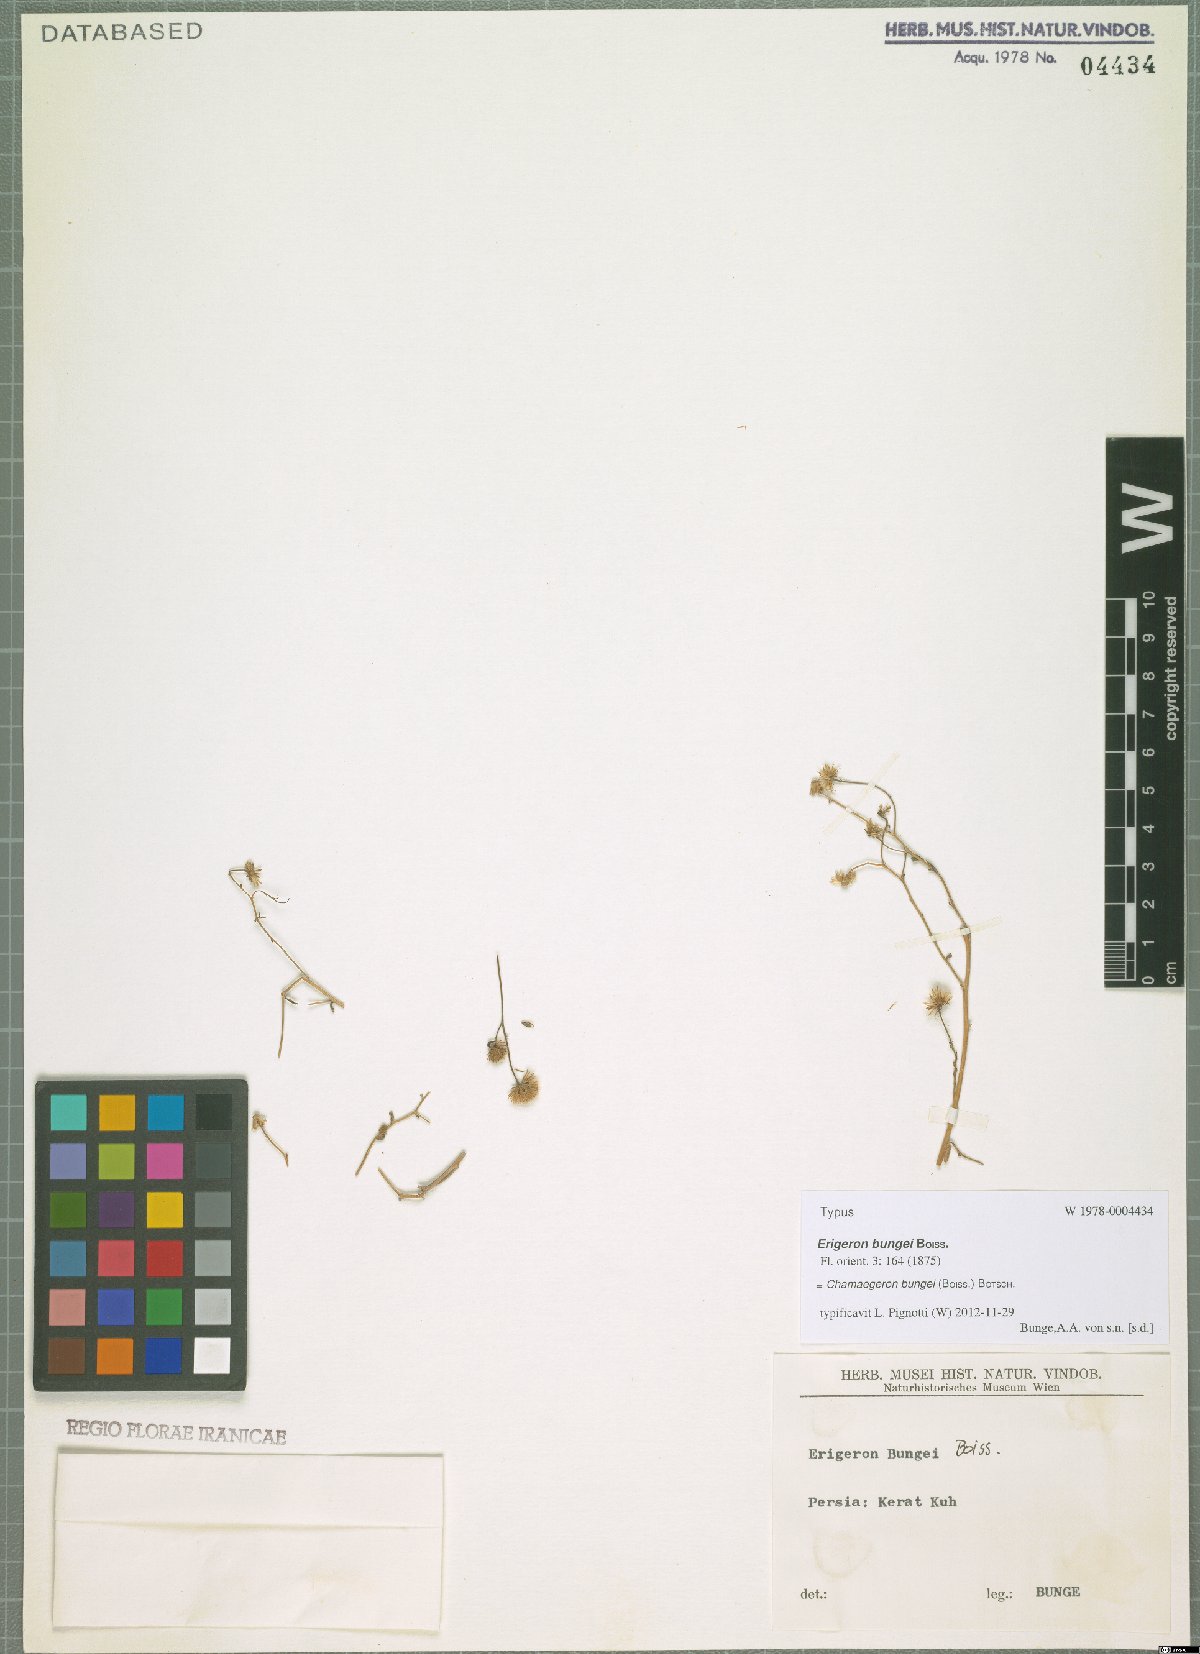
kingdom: Plantae
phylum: Tracheophyta
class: Magnoliopsida
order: Asterales
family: Asteraceae
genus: Chamaegeron
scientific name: Chamaegeron bungei
